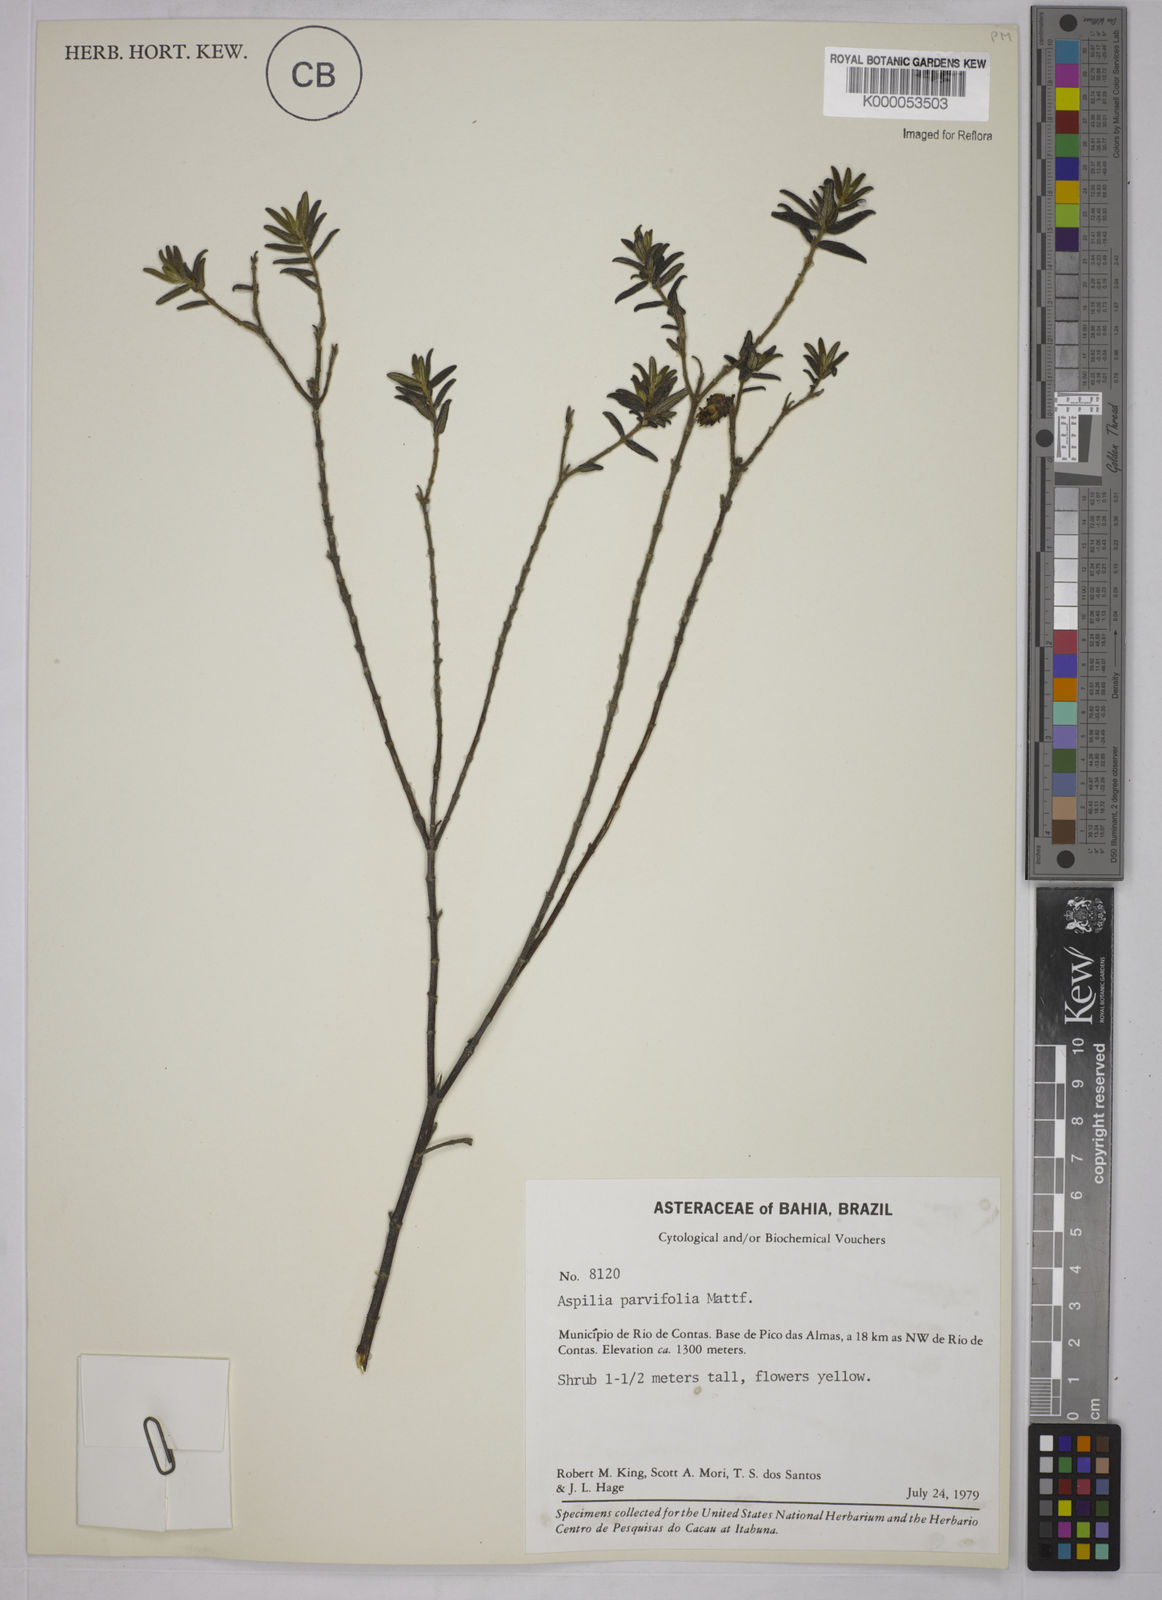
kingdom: Plantae
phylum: Tracheophyta
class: Magnoliopsida
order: Asterales
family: Asteraceae
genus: Aspilia
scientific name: Aspilia foliosa
